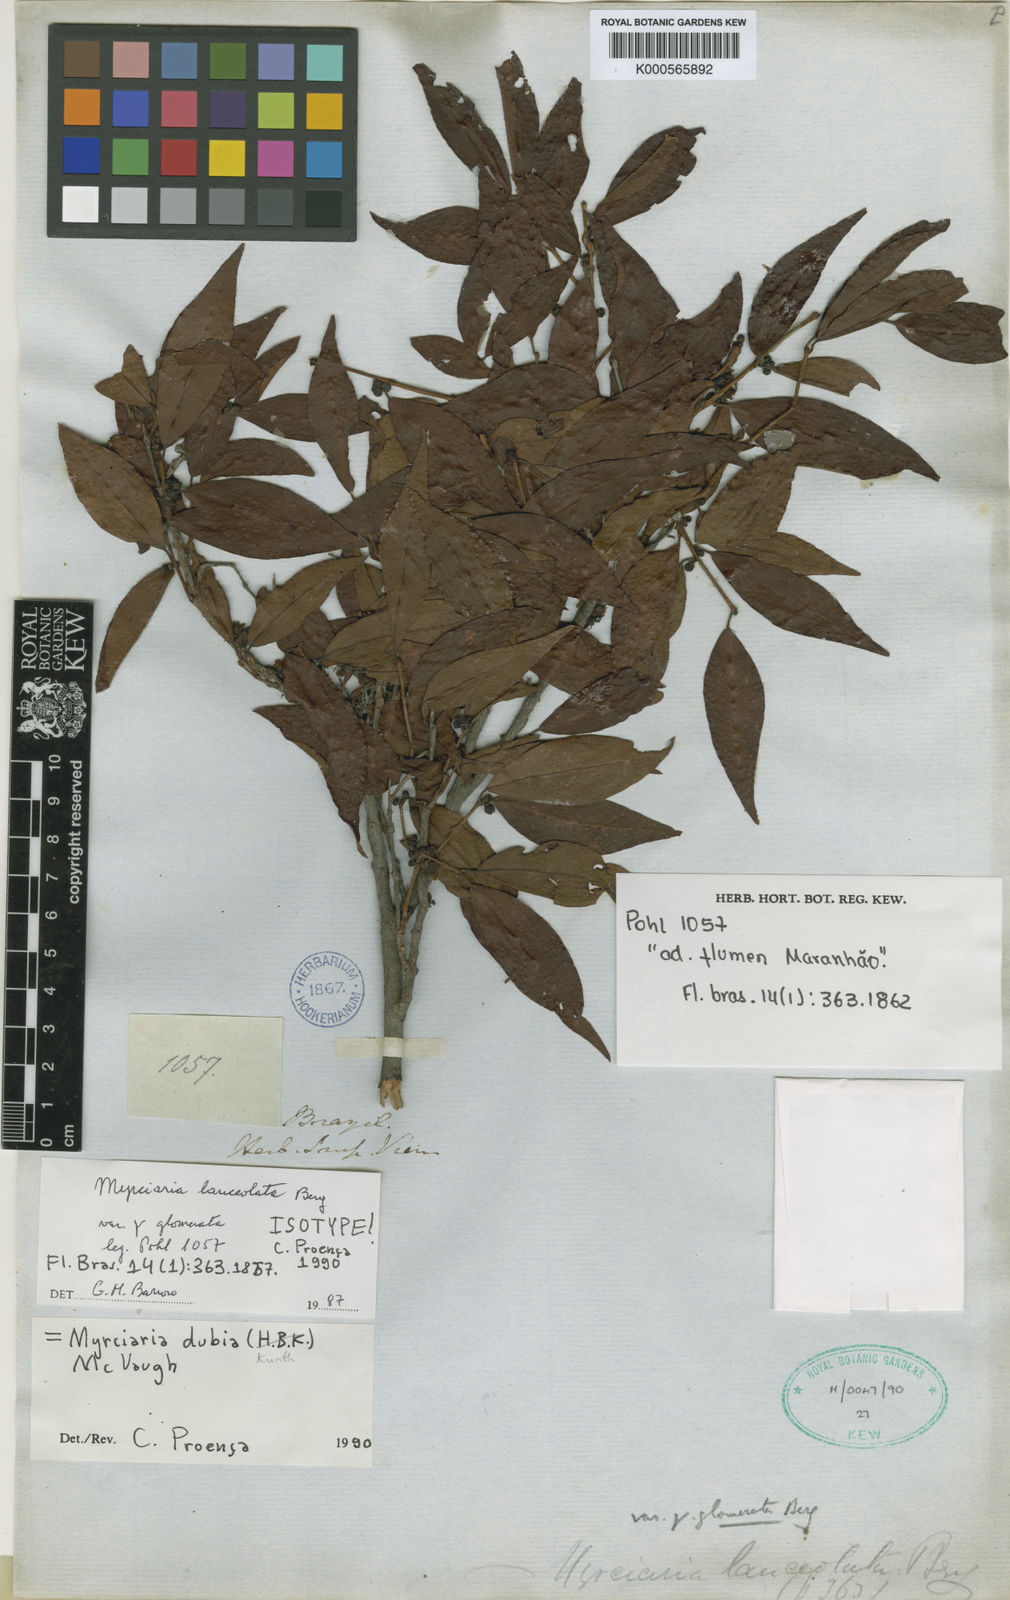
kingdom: Plantae
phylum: Tracheophyta
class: Magnoliopsida
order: Myrtales
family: Myrtaceae
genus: Myrciaria
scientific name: Myrciaria dubia
